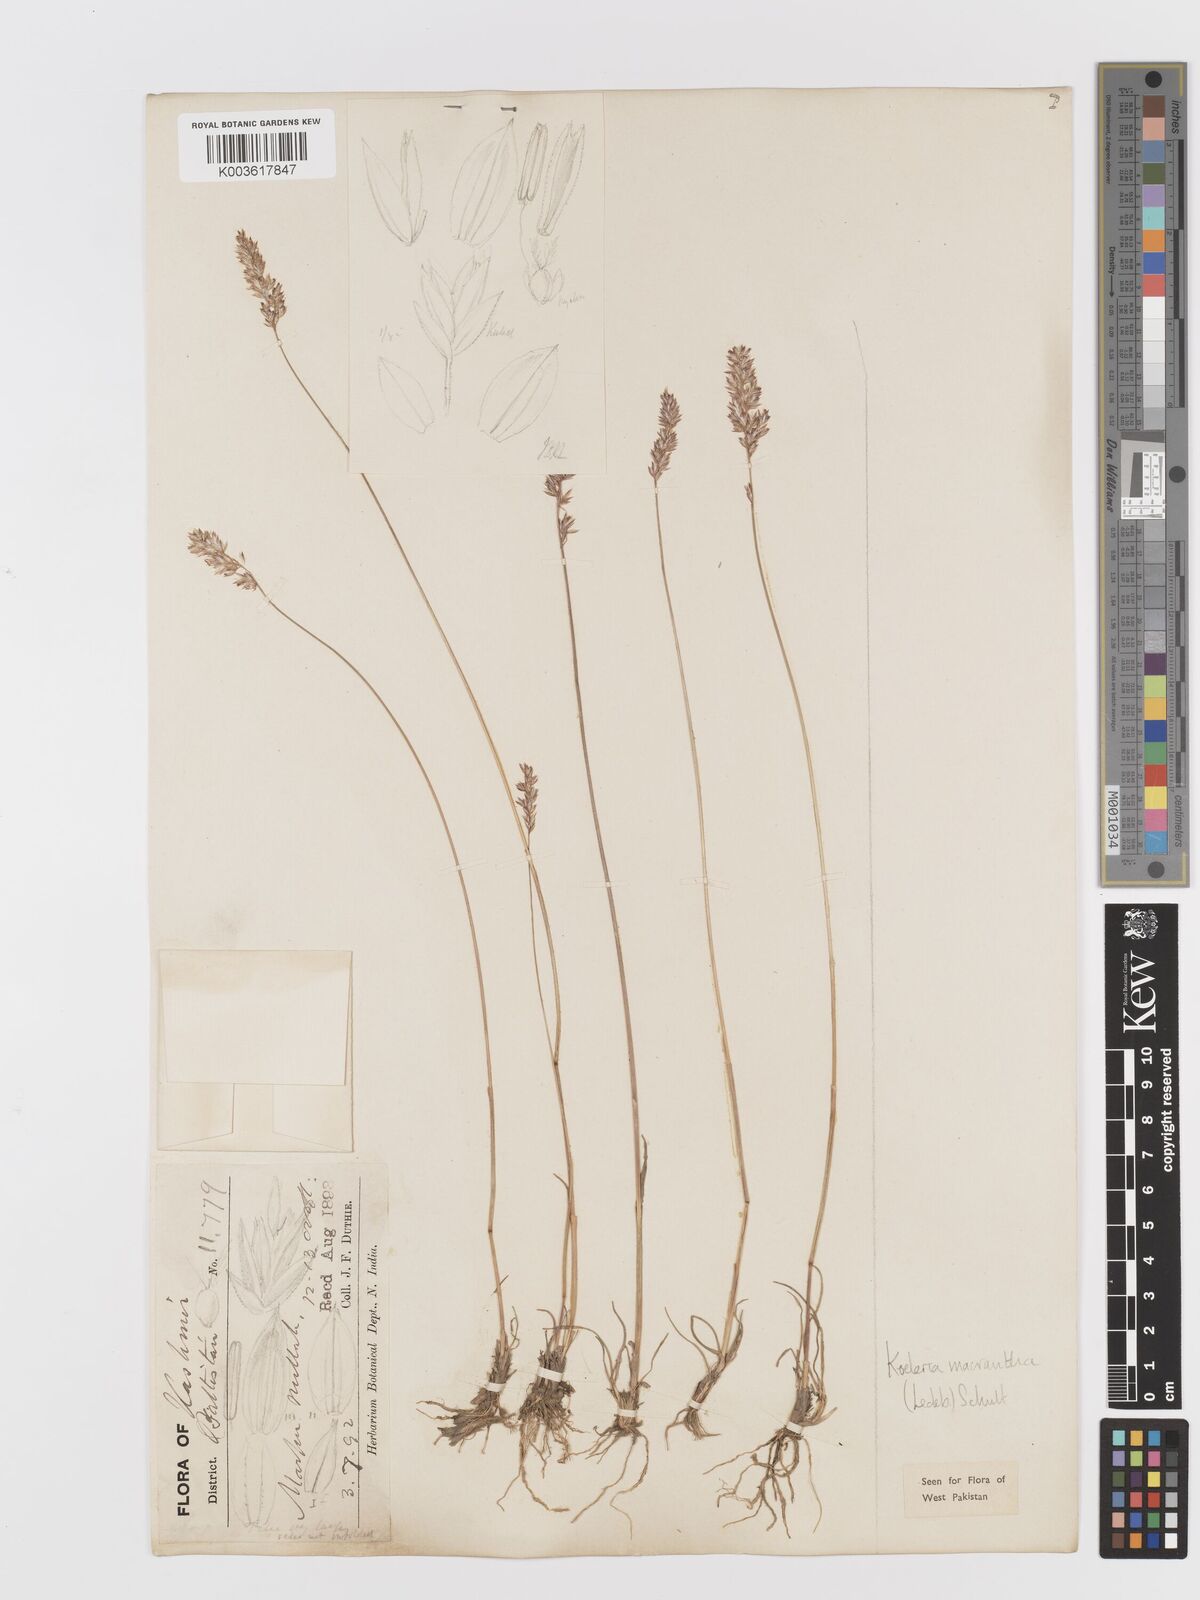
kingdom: Plantae
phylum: Tracheophyta
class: Liliopsida
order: Poales
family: Poaceae
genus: Koeleria
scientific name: Koeleria macrantha
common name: Crested hair-grass
